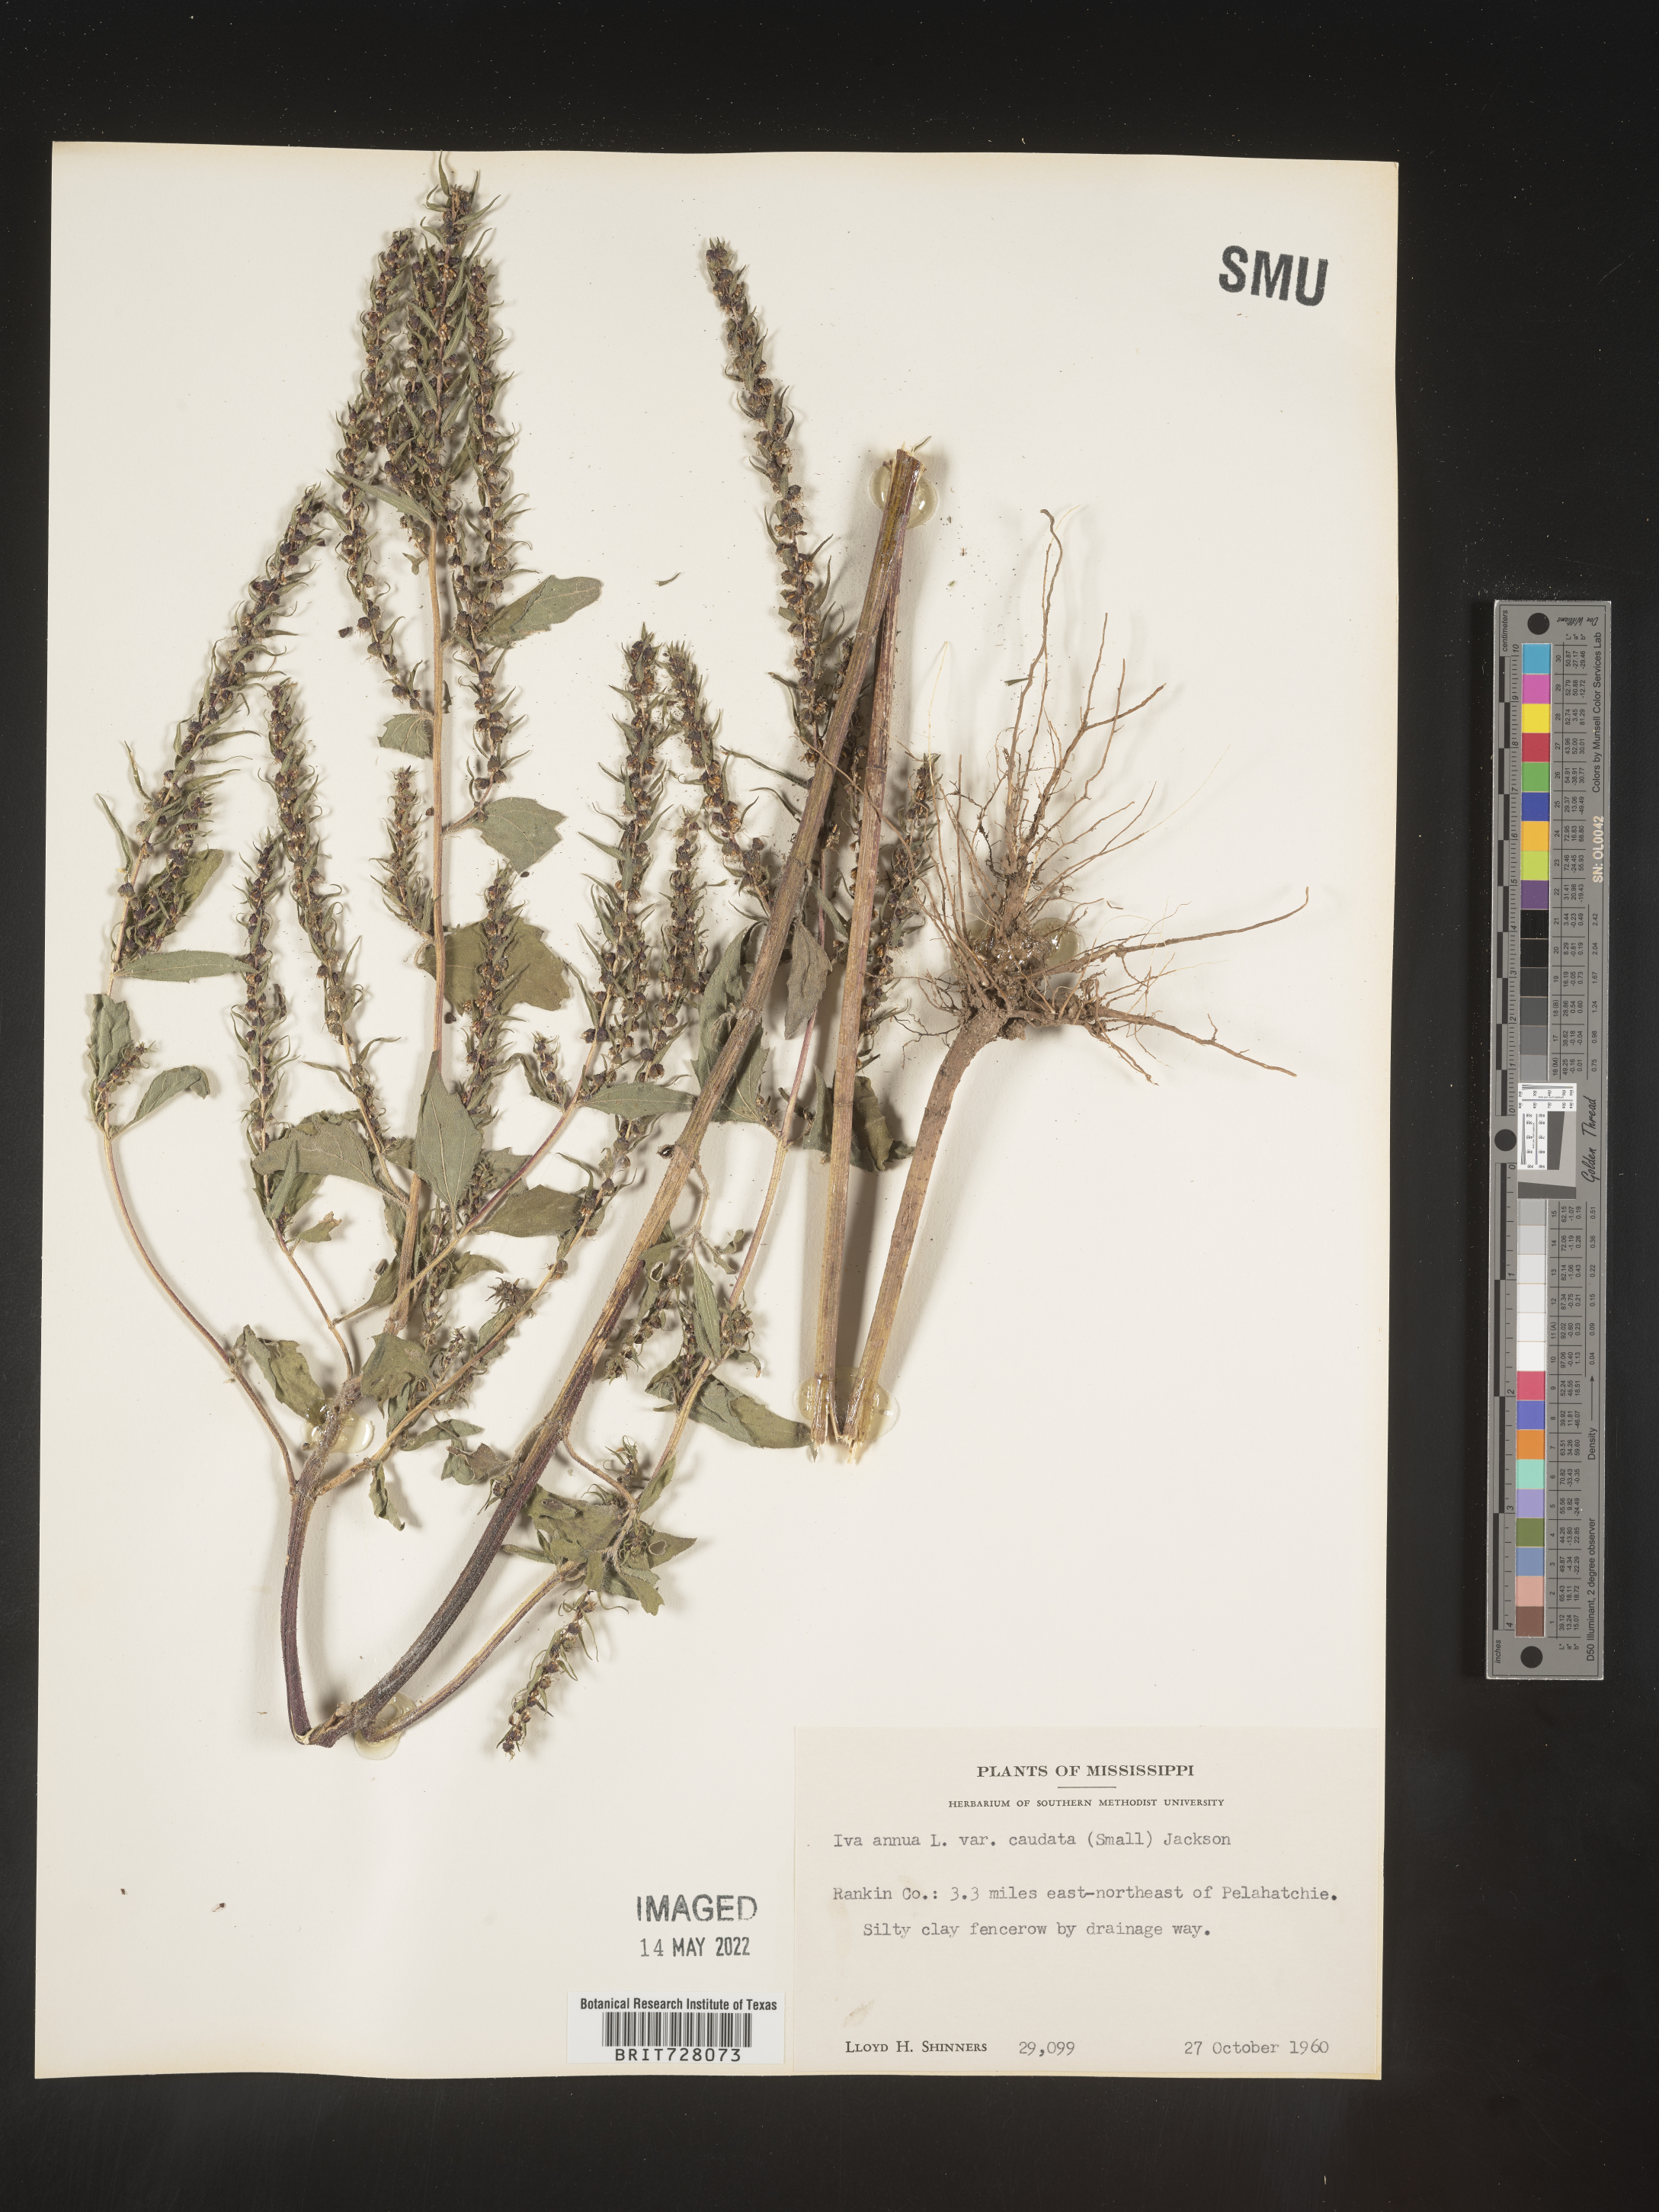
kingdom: Plantae
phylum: Tracheophyta
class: Magnoliopsida
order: Asterales
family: Asteraceae
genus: Iva
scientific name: Iva annua
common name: Marsh-elder
